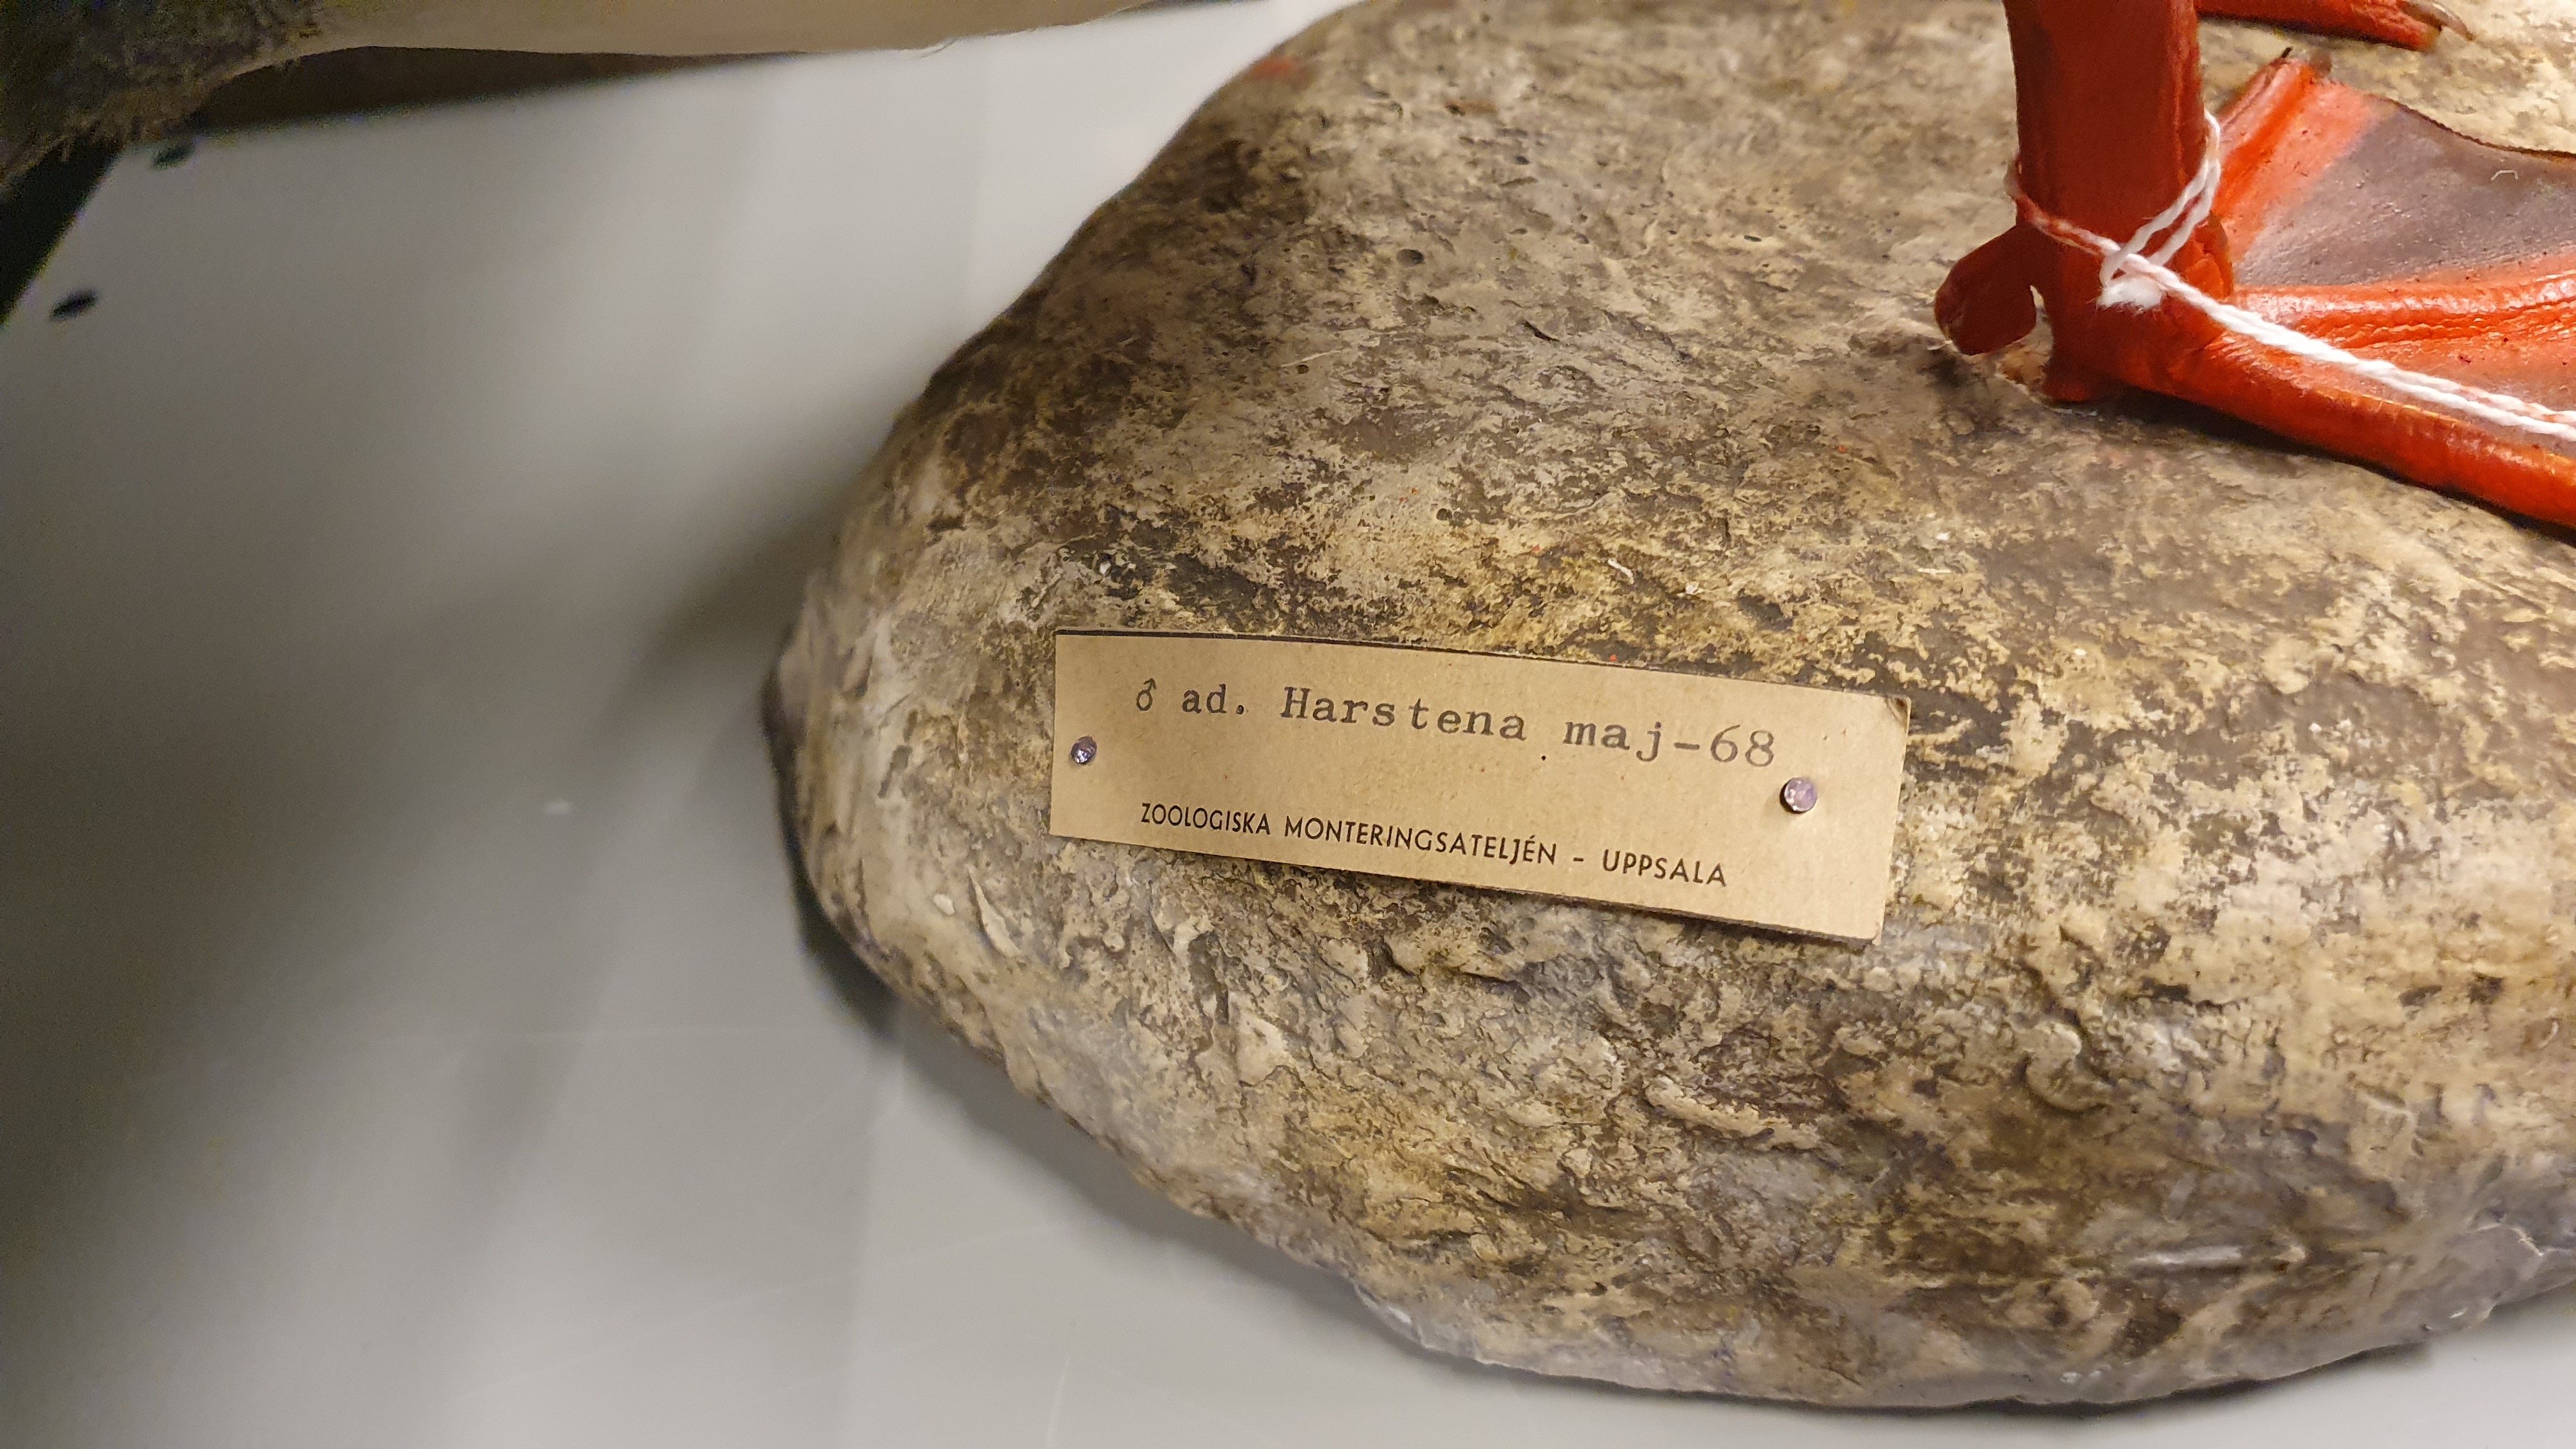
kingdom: Animalia
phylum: Chordata
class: Aves
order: Anseriformes
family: Anatidae
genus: Mergus
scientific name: Mergus merganser
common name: Common merganser
